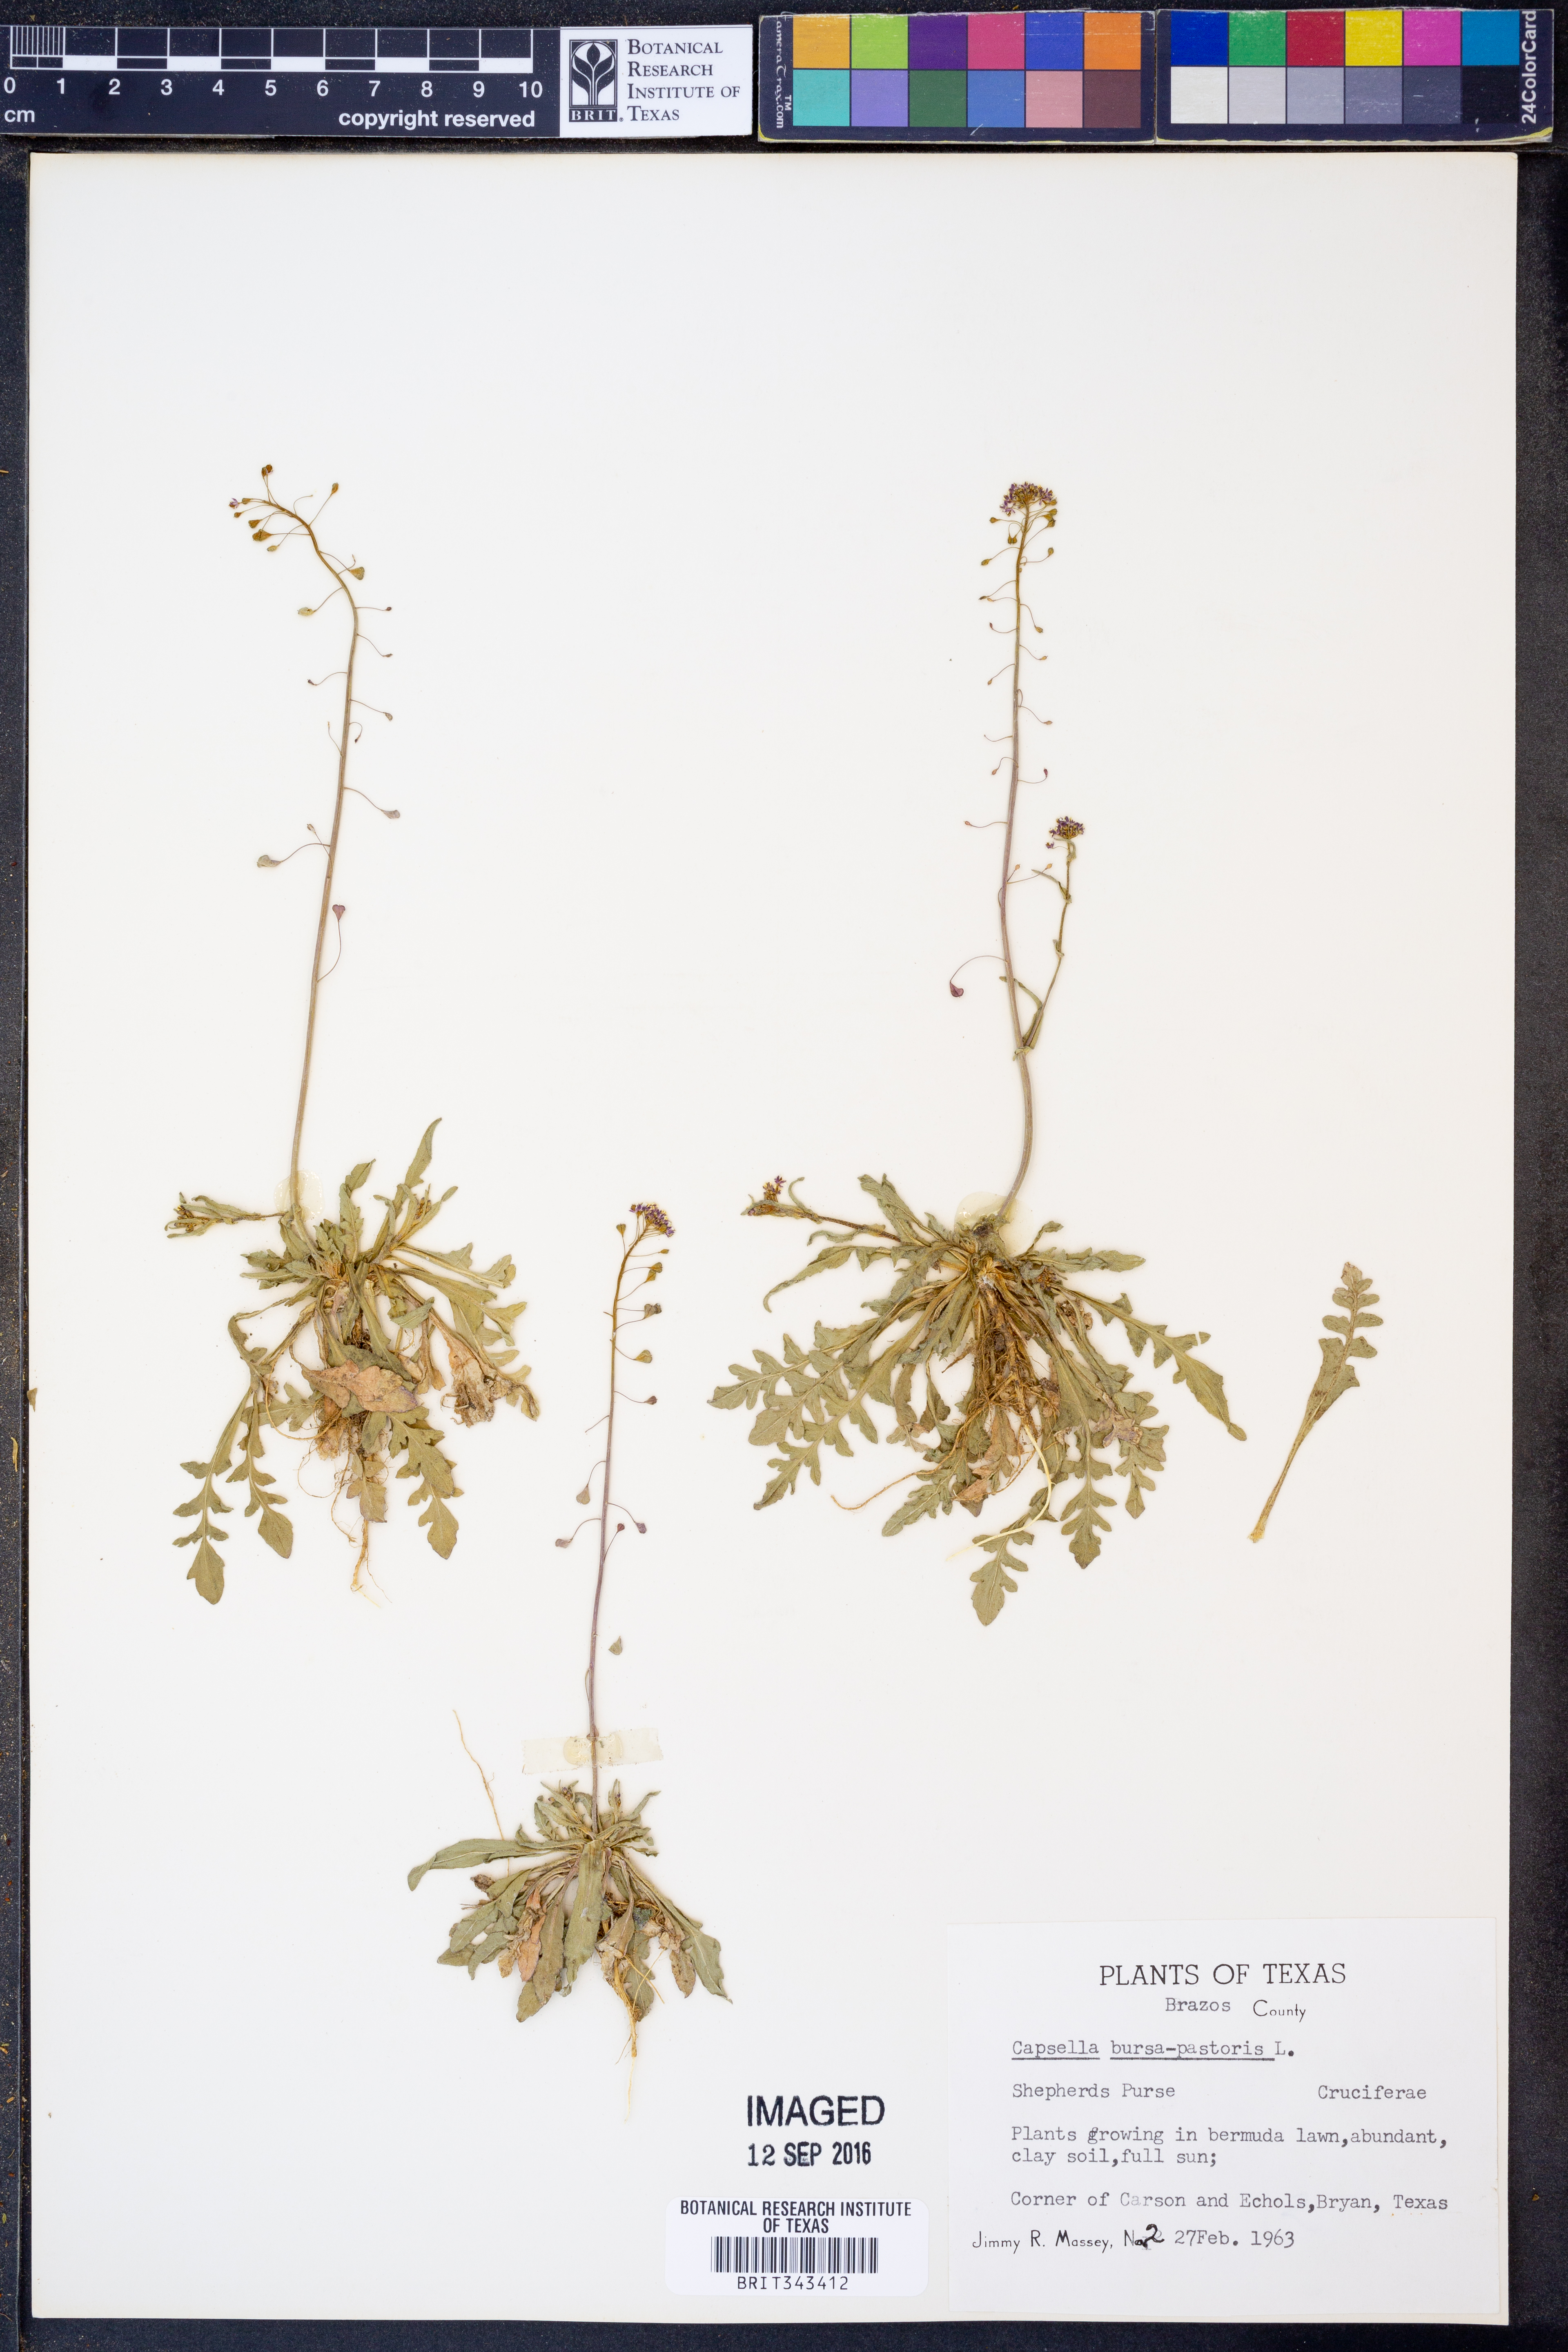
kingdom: Plantae
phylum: Tracheophyta
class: Magnoliopsida
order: Brassicales
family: Brassicaceae
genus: Capsella
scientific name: Capsella bursa-pastoris
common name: Shepherd's purse
